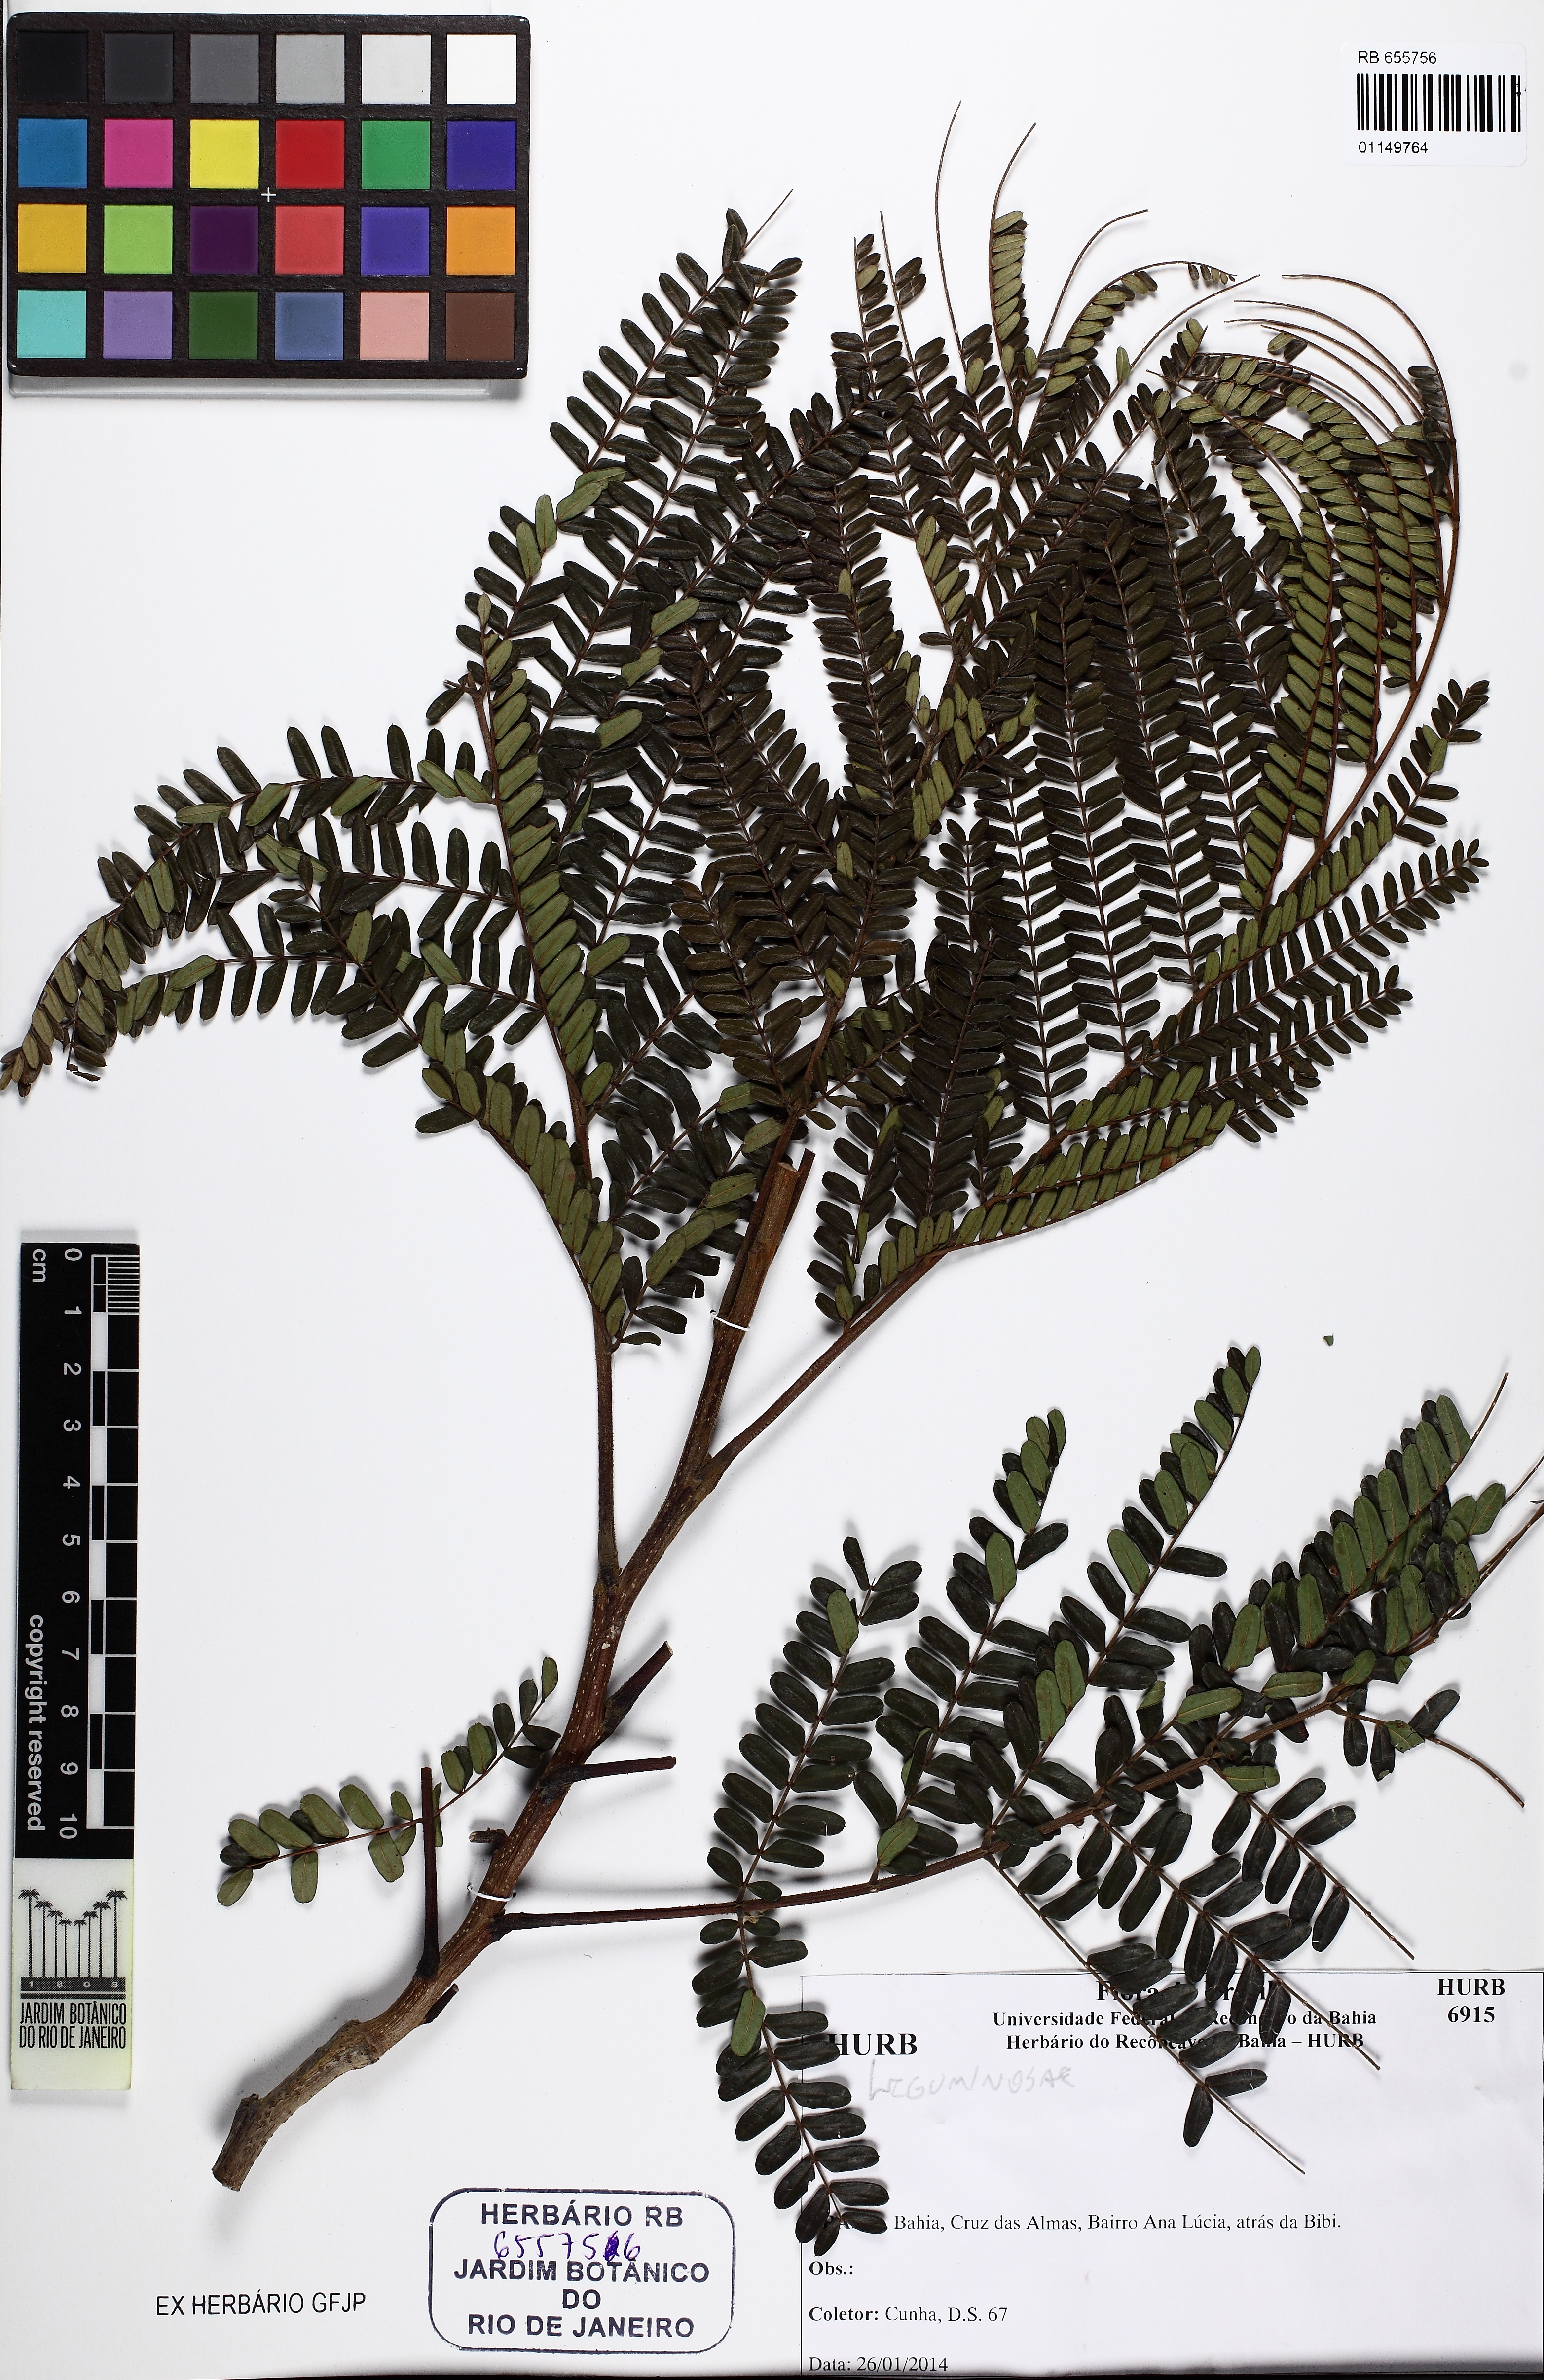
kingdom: Plantae
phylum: Tracheophyta
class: Magnoliopsida
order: Fabales
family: Fabaceae
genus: Peltophorum
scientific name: Peltophorum dubium
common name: Horsebush
